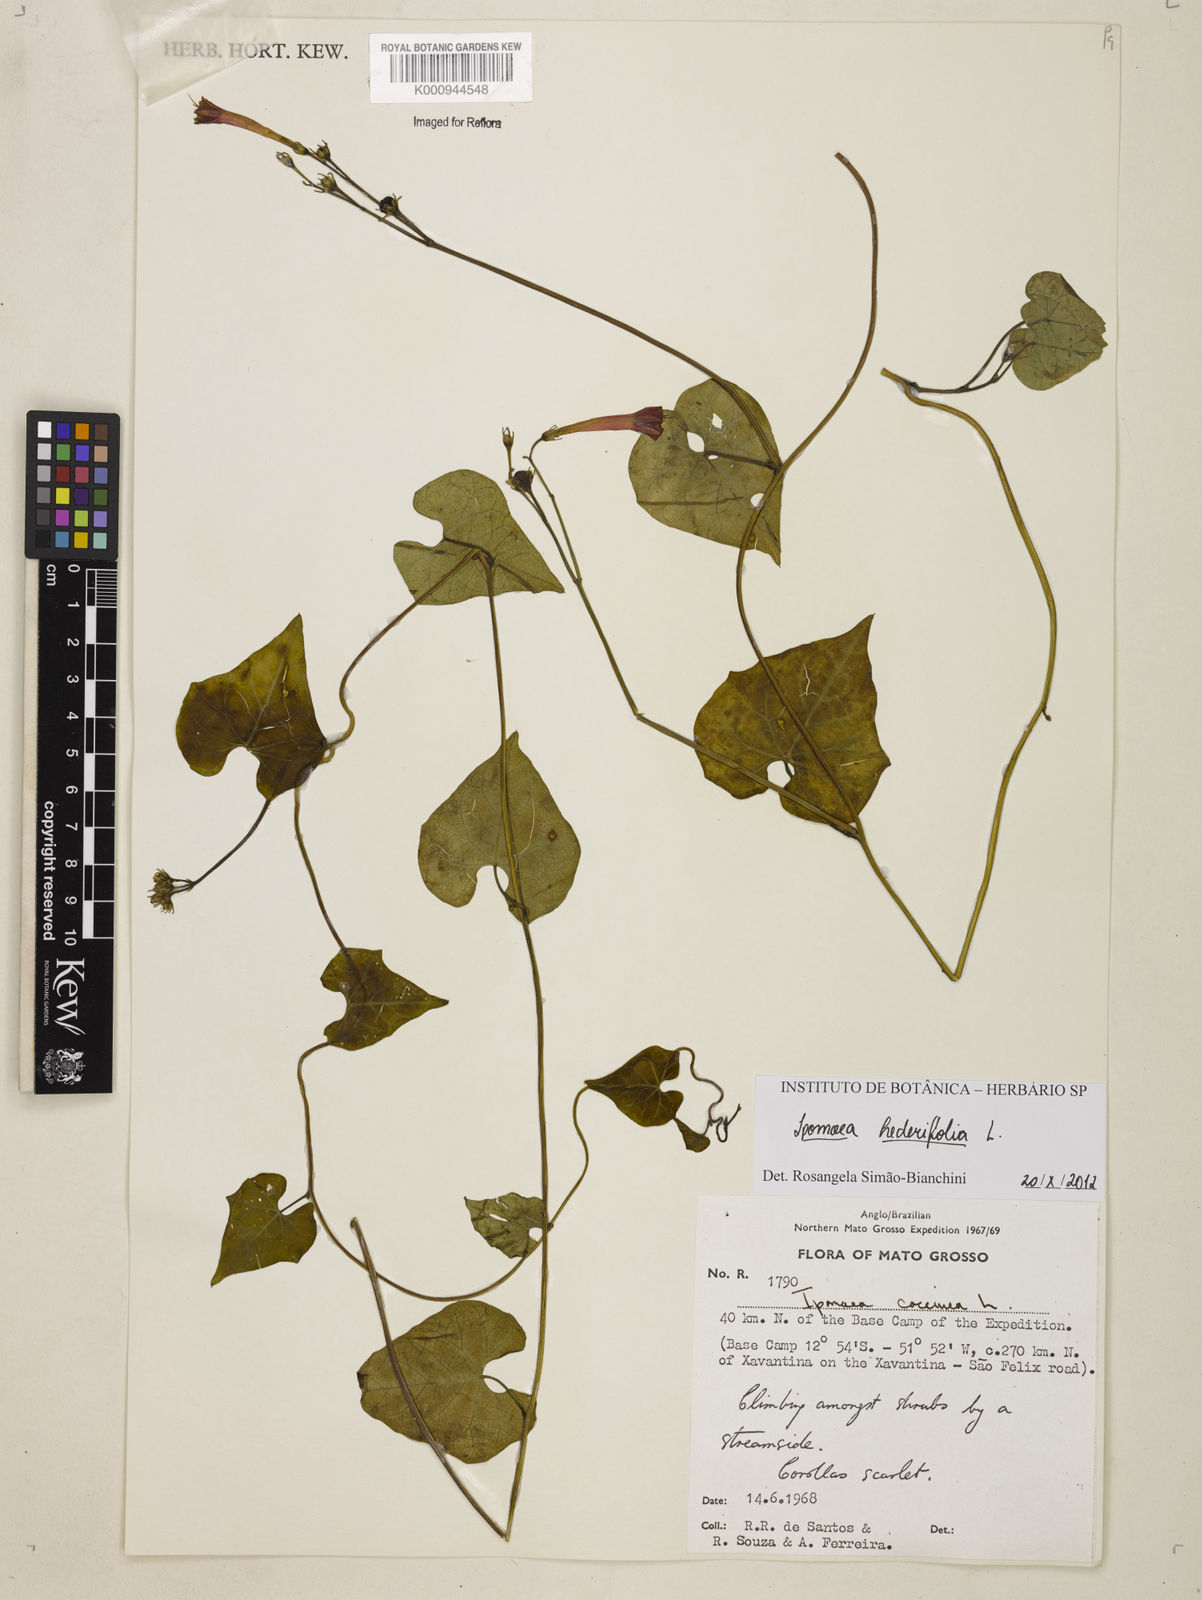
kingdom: Plantae
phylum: Tracheophyta
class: Magnoliopsida
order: Solanales
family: Convolvulaceae
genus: Ipomoea
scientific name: Ipomoea hederifolia
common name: Ivy-leaf morning-glory
